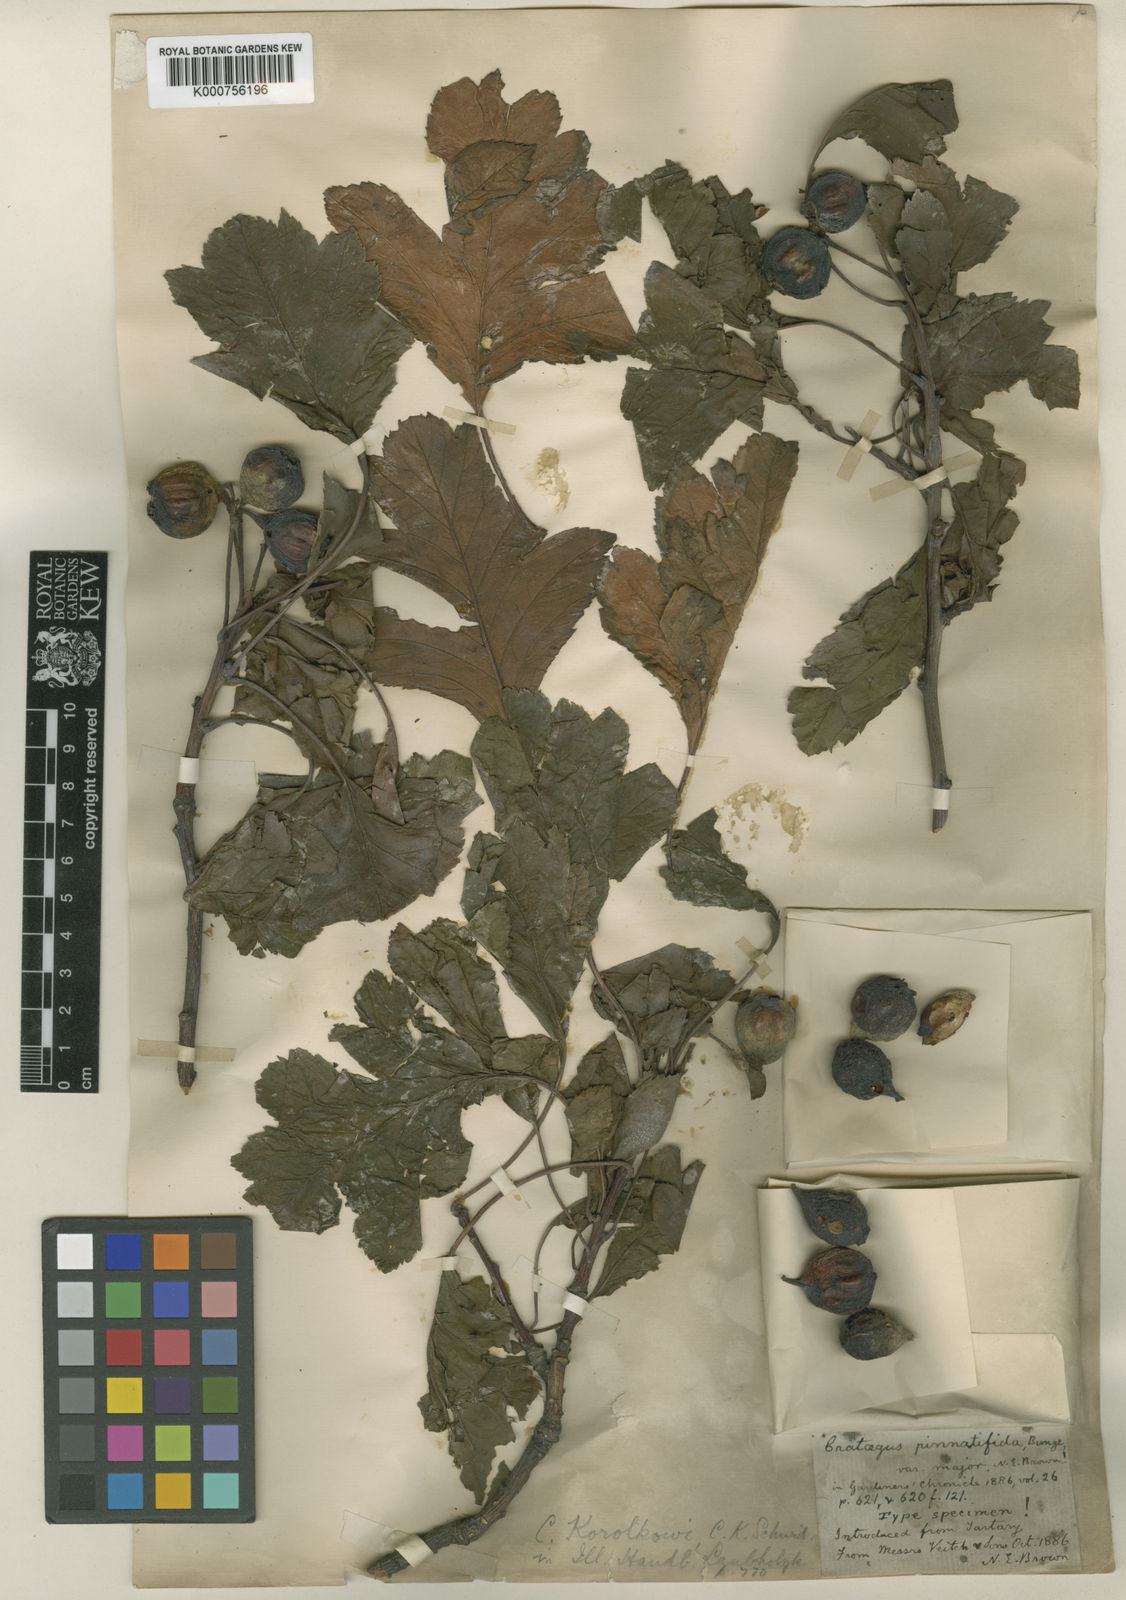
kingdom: Plantae
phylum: Tracheophyta
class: Magnoliopsida
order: Rosales
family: Rosaceae
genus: Crataegus
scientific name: Crataegus pinnatifida
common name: Chinese haw
